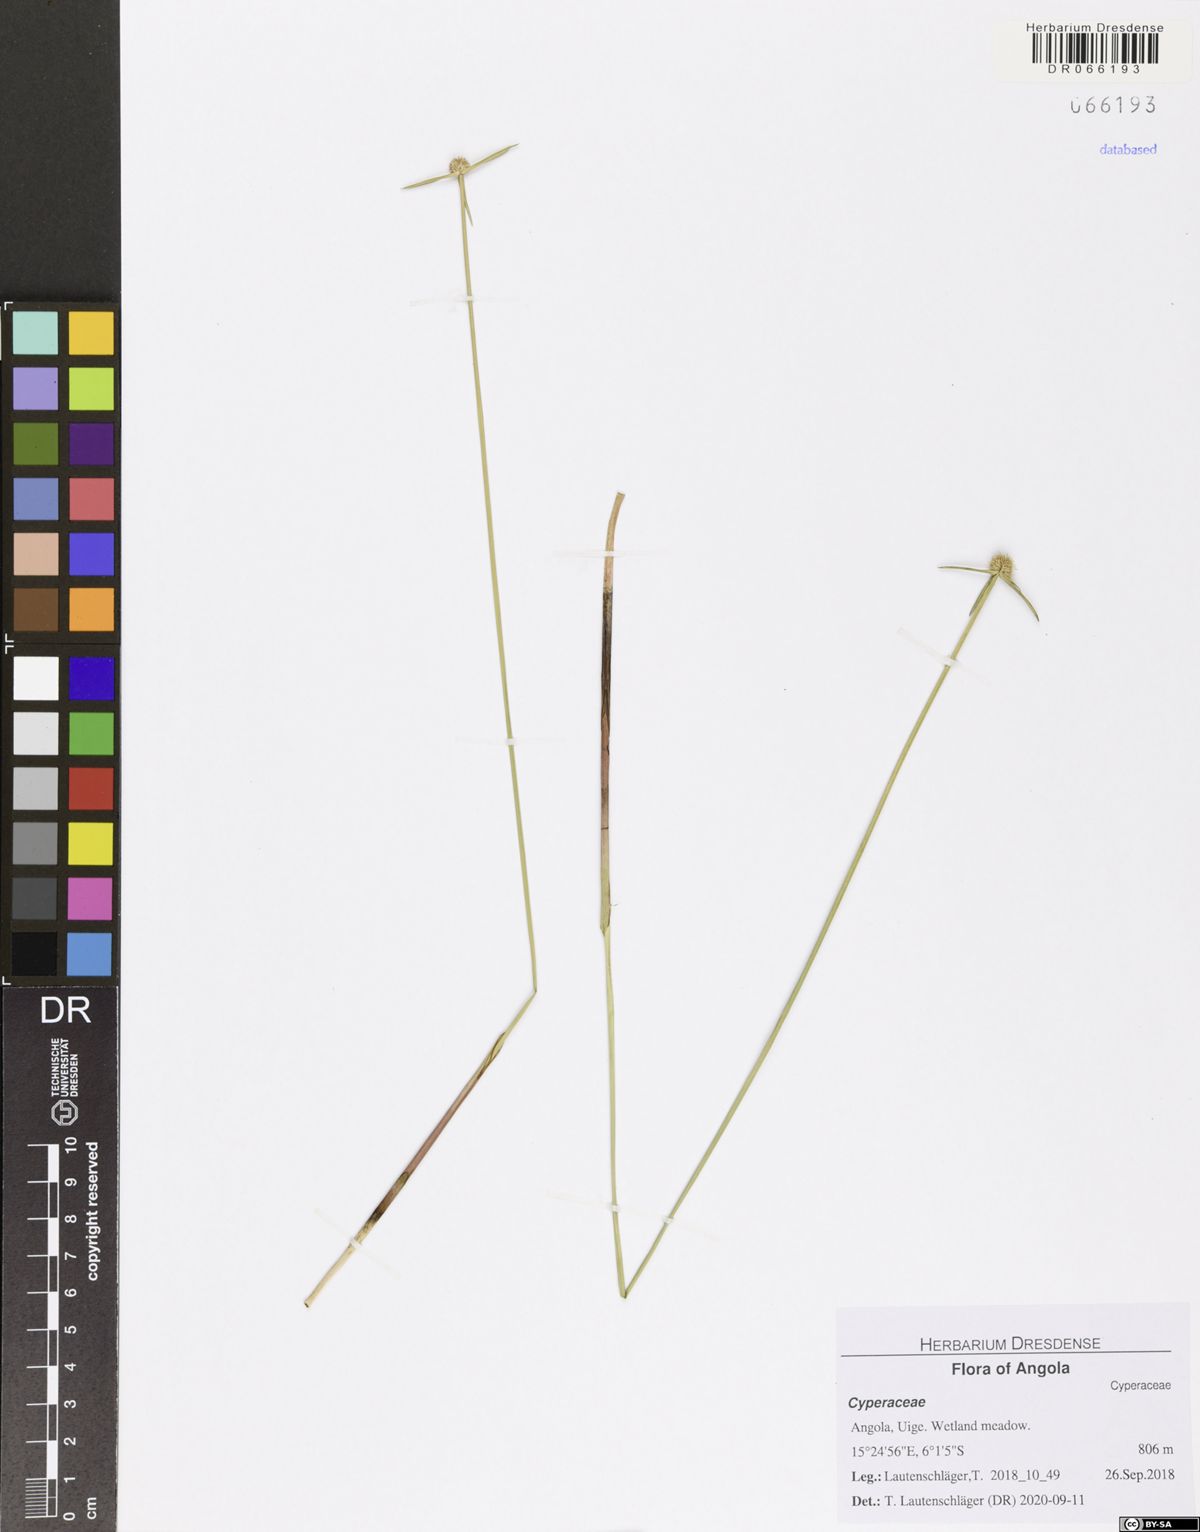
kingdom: Plantae
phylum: Tracheophyta
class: Liliopsida
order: Poales
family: Cyperaceae
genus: Cyperus
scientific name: Cyperus tanzaniae
